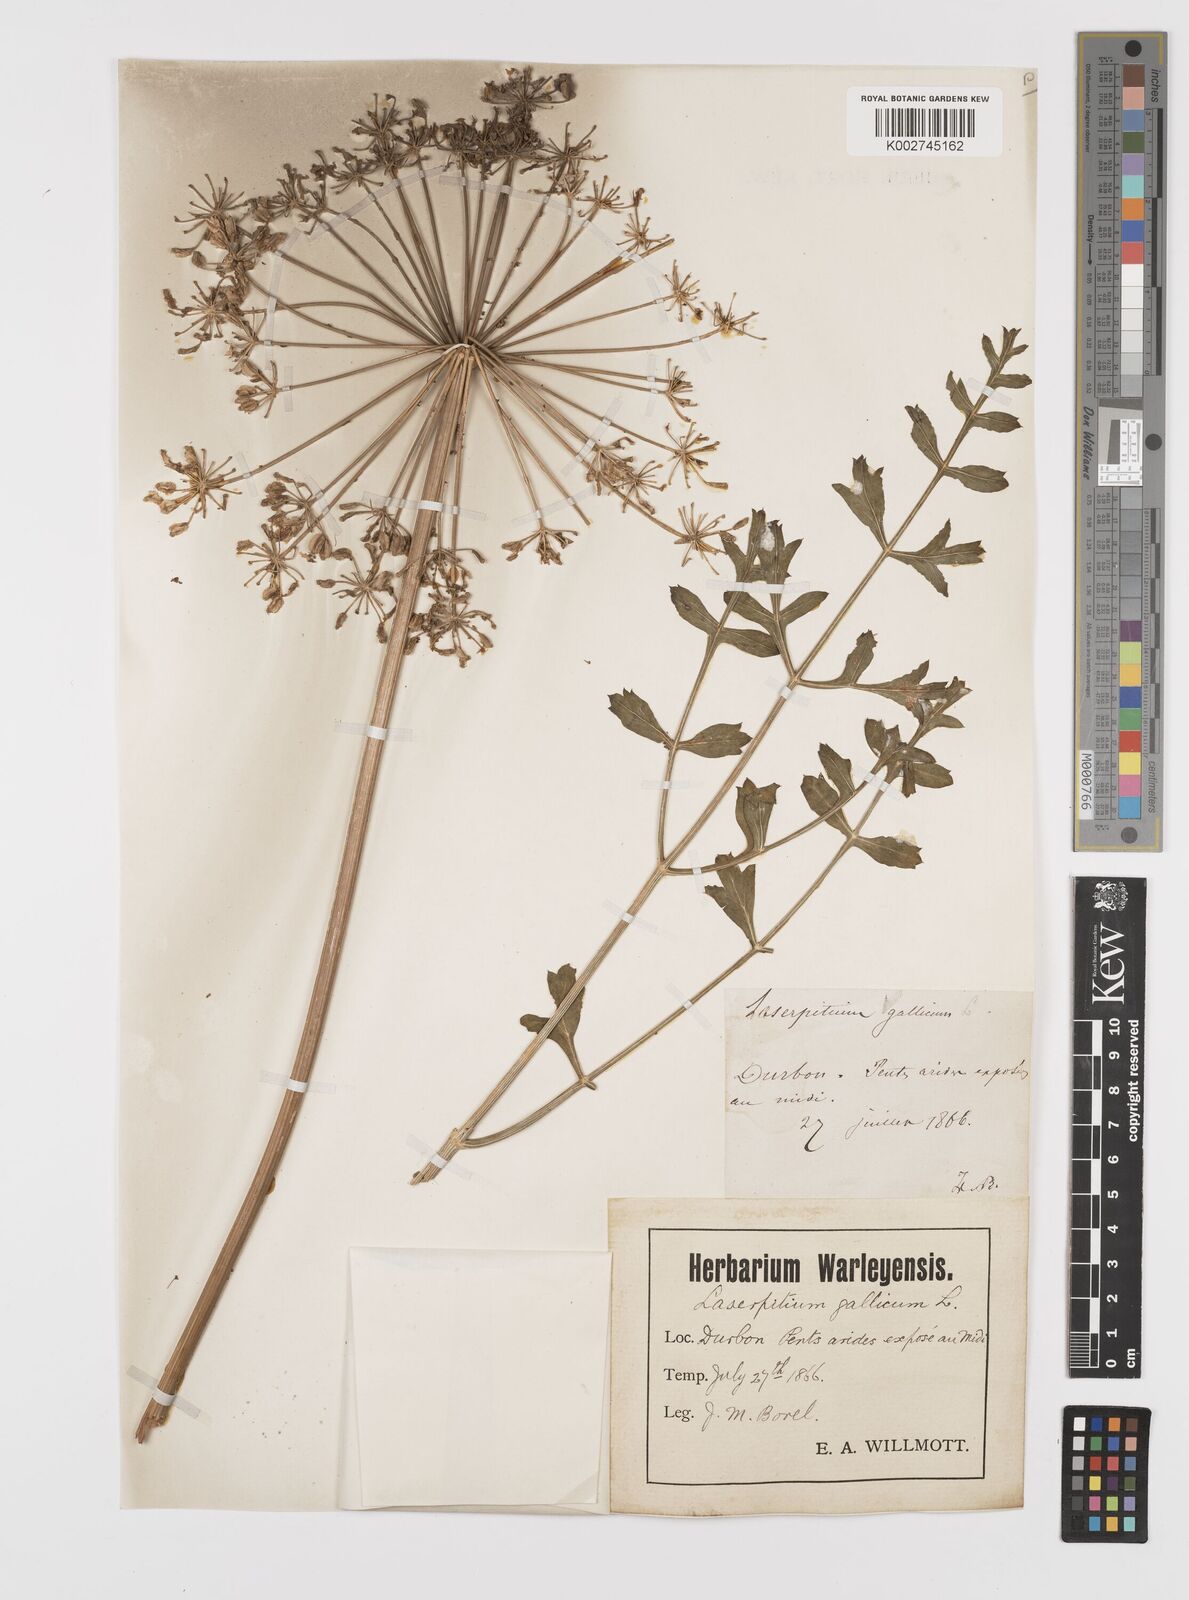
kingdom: Plantae
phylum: Tracheophyta
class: Magnoliopsida
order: Apiales
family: Apiaceae
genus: Laserpitium
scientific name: Laserpitium gallicum
